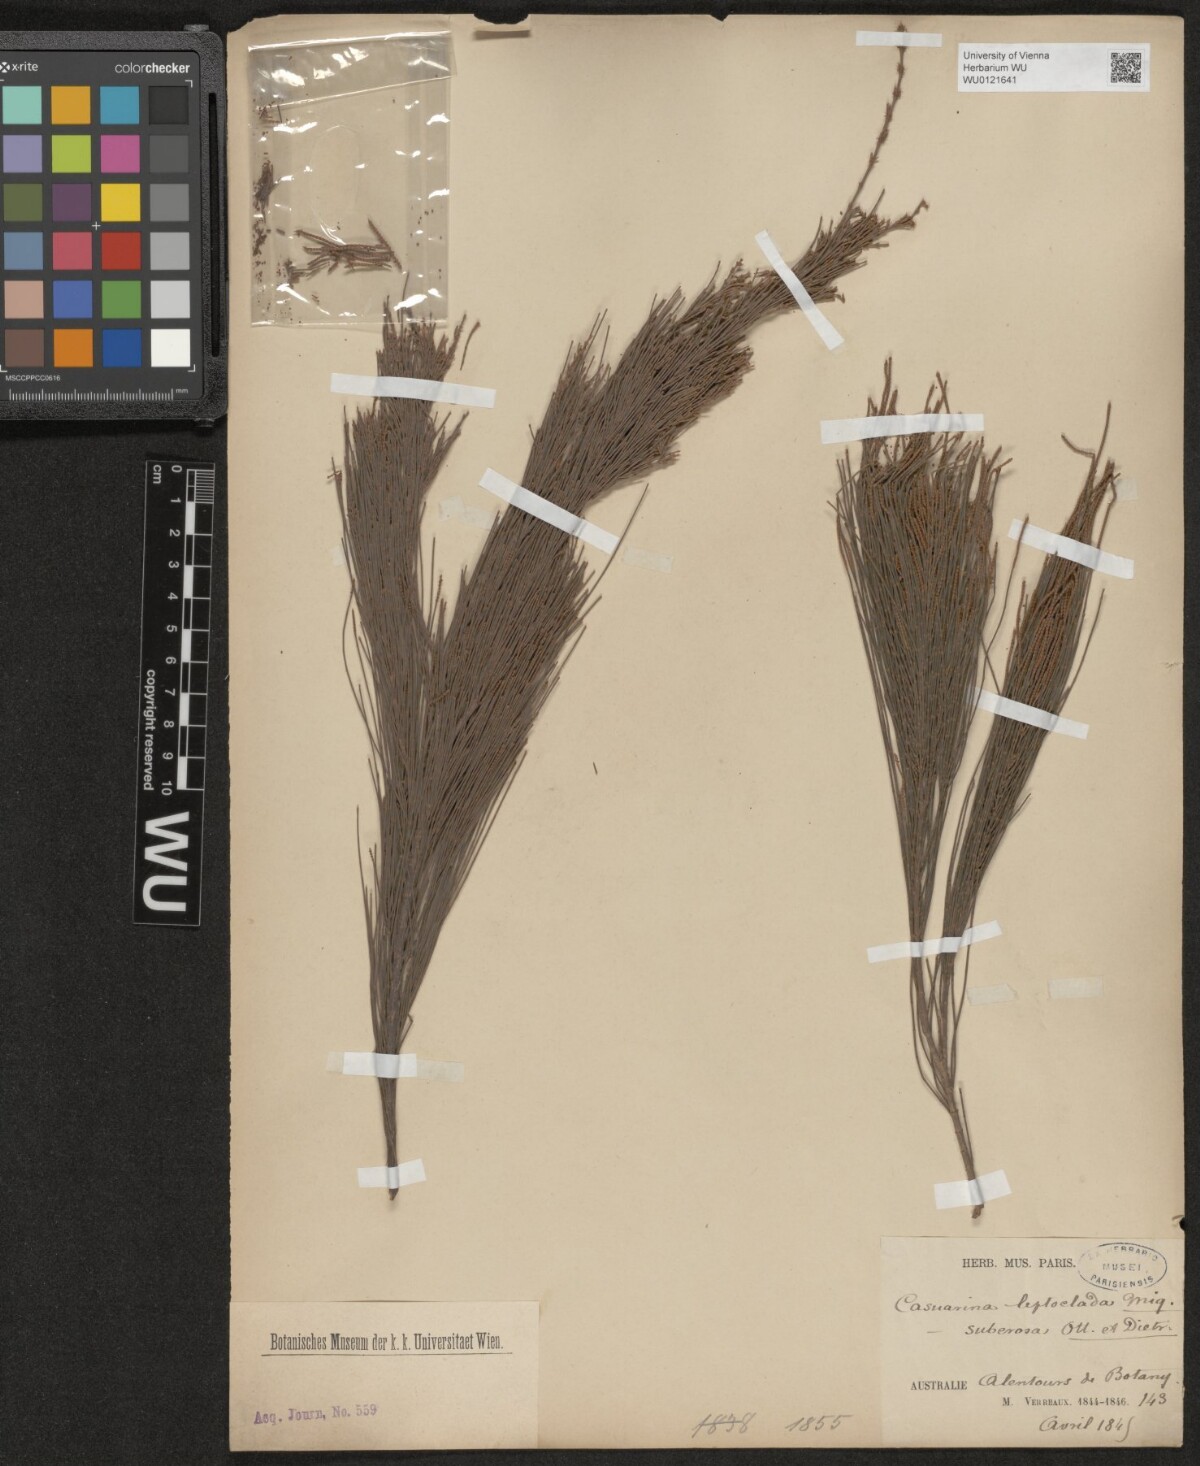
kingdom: Plantae
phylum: Tracheophyta
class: Magnoliopsida
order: Fagales
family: Casuarinaceae
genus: Allocasuarina
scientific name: Allocasuarina littoralis
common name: Black she-oak
